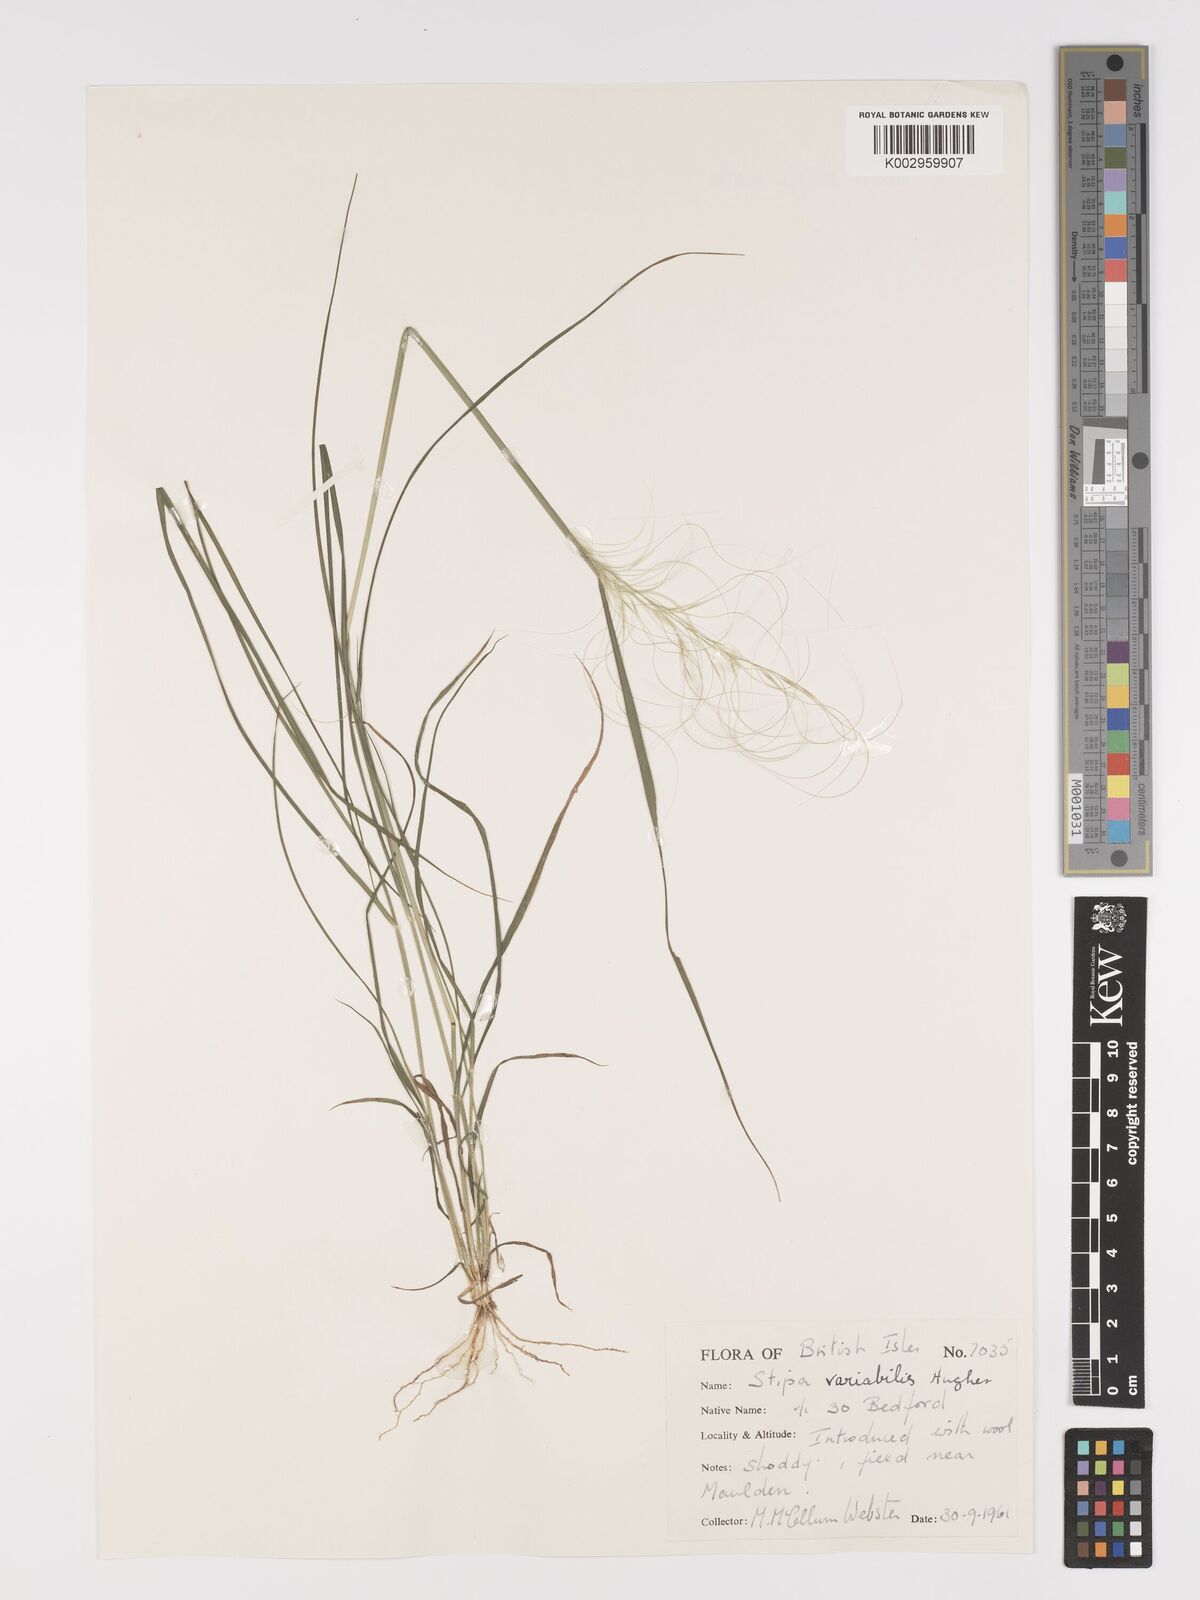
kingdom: Plantae
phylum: Tracheophyta
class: Liliopsida
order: Poales
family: Poaceae
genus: Austrostipa
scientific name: Austrostipa variabilis
